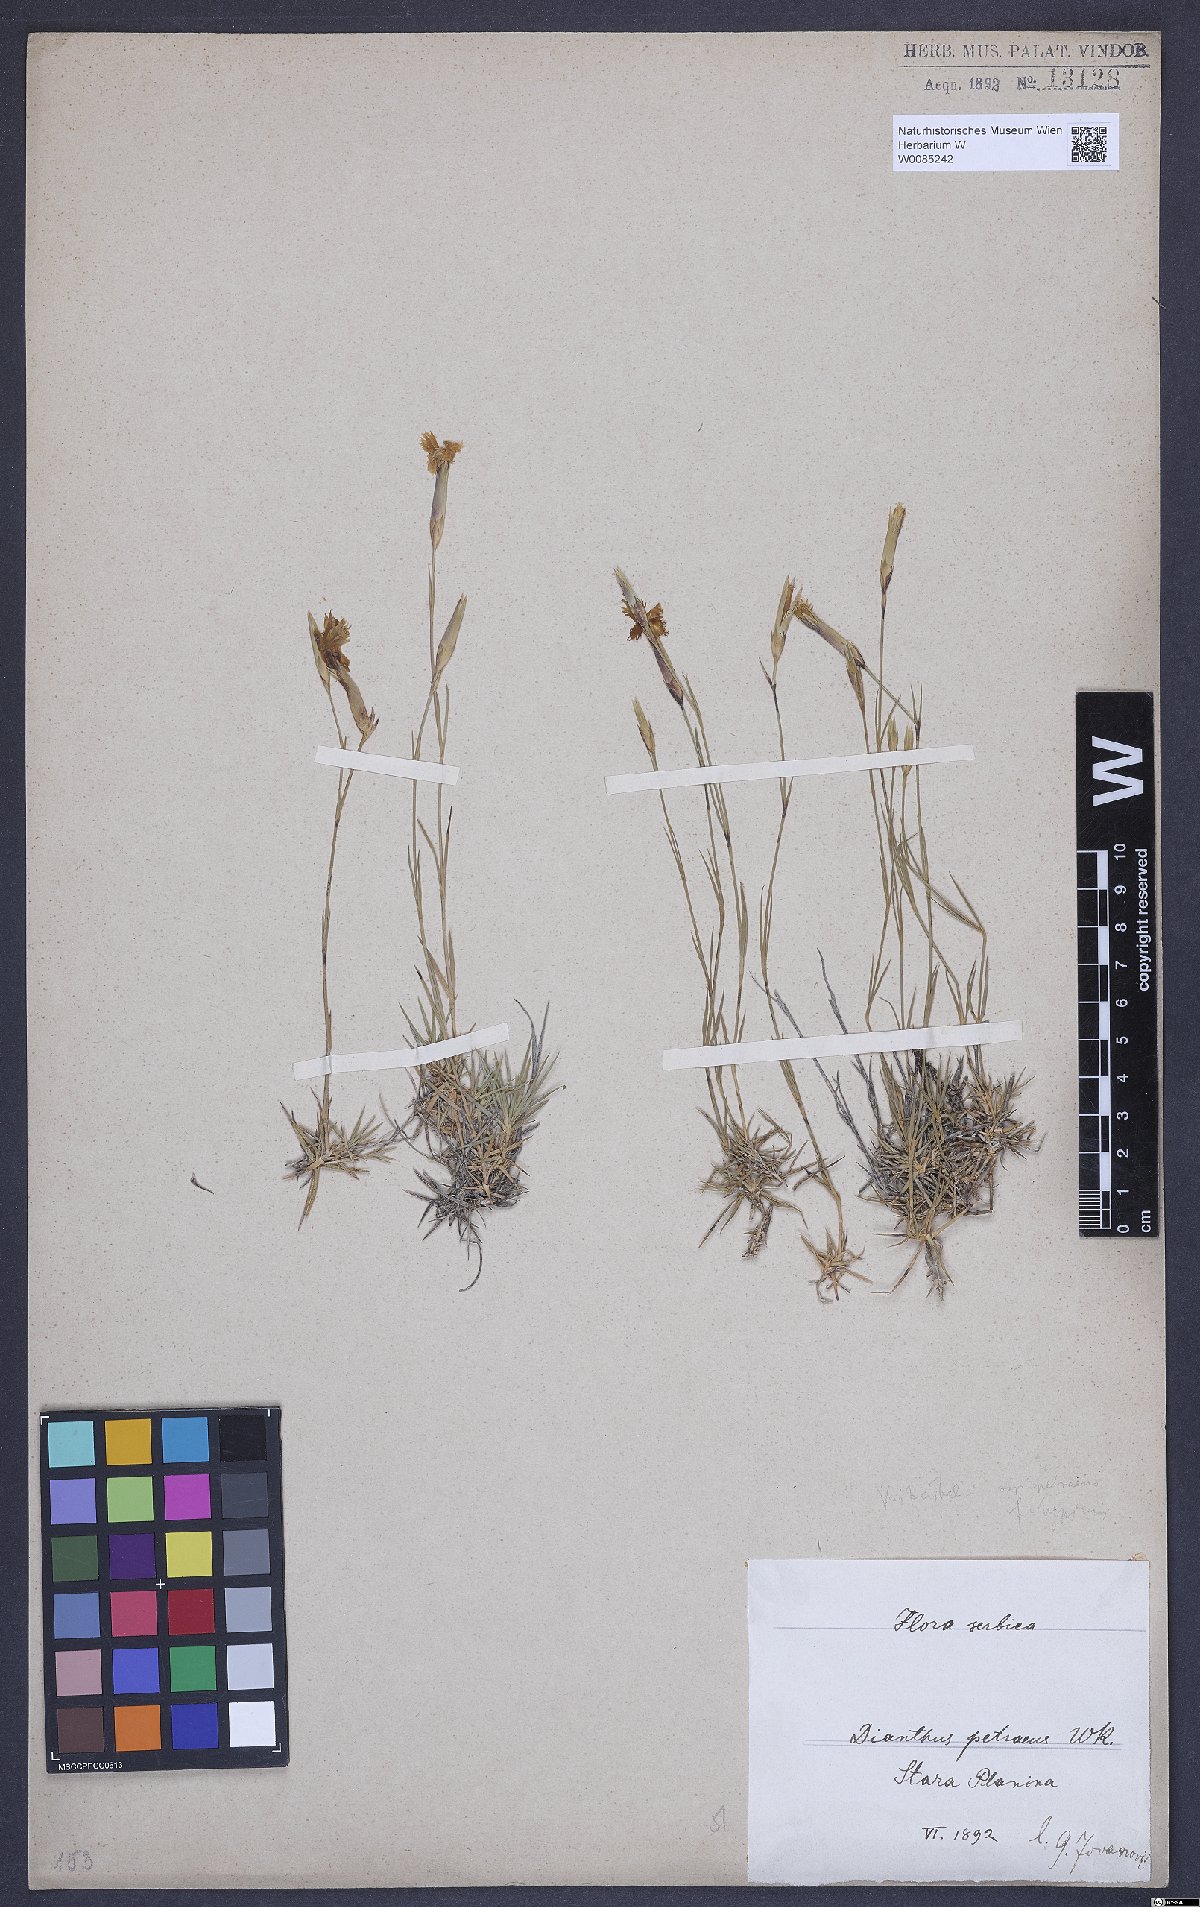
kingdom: Plantae
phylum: Tracheophyta
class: Magnoliopsida
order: Caryophyllales
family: Caryophyllaceae
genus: Dianthus
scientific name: Dianthus petraeus
